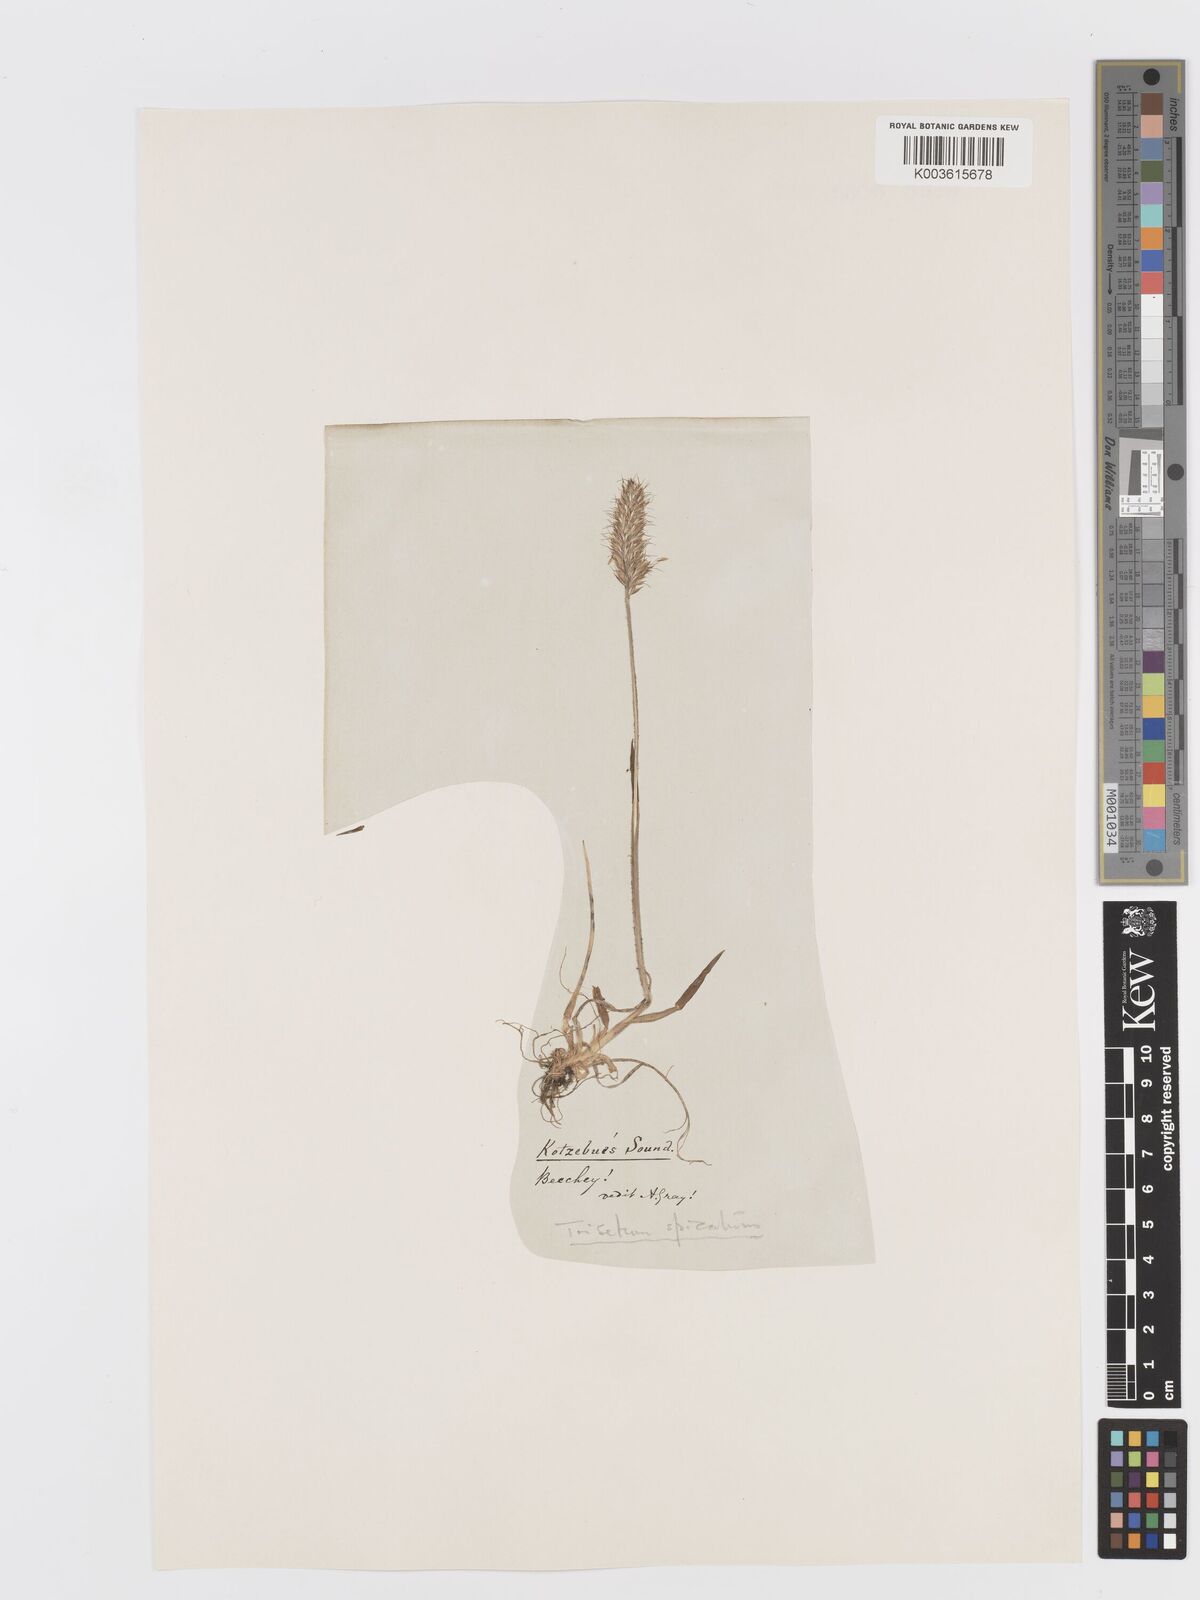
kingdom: Plantae
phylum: Tracheophyta
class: Liliopsida
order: Poales
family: Poaceae
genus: Koeleria
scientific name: Koeleria spicata
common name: Mountain trisetum
